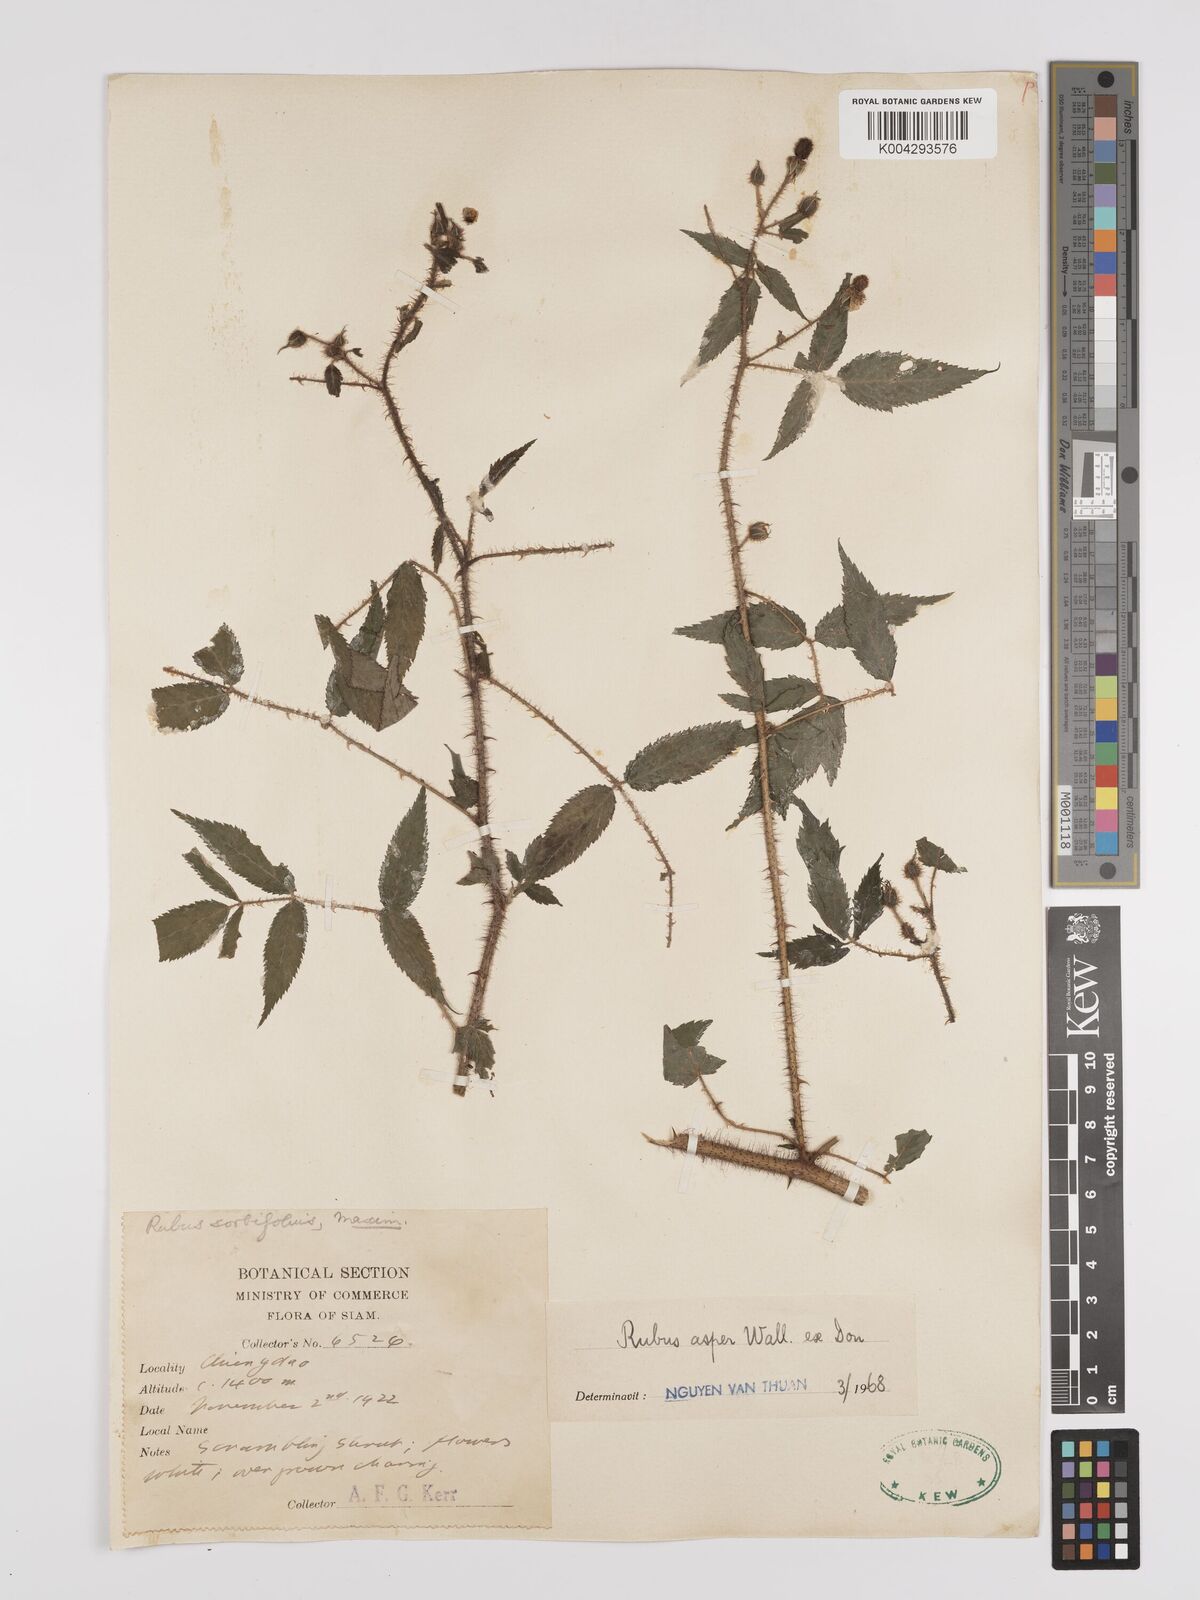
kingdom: Plantae
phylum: Tracheophyta
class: Magnoliopsida
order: Rosales
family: Rosaceae
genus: Rubus
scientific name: Rubus sumatranus
